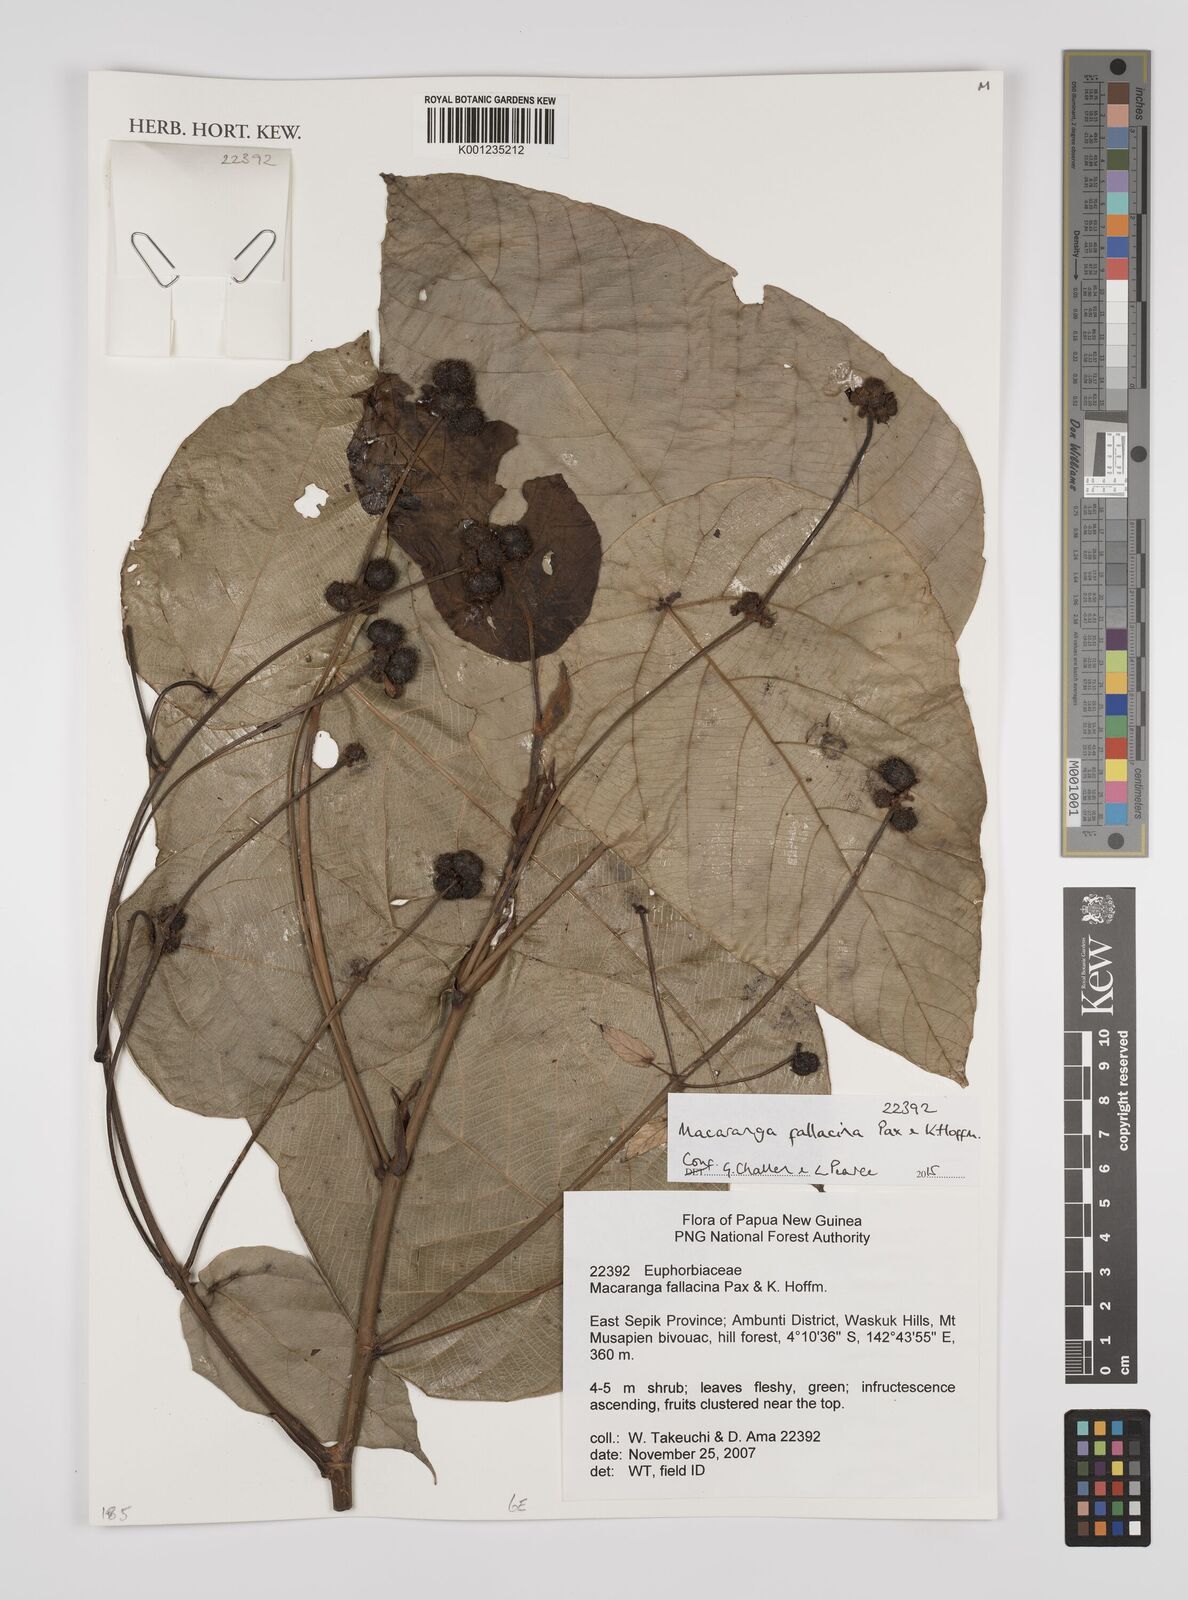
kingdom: Plantae
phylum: Tracheophyta
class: Magnoliopsida
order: Malpighiales
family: Euphorbiaceae
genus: Macaranga
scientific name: Macaranga fallacina
